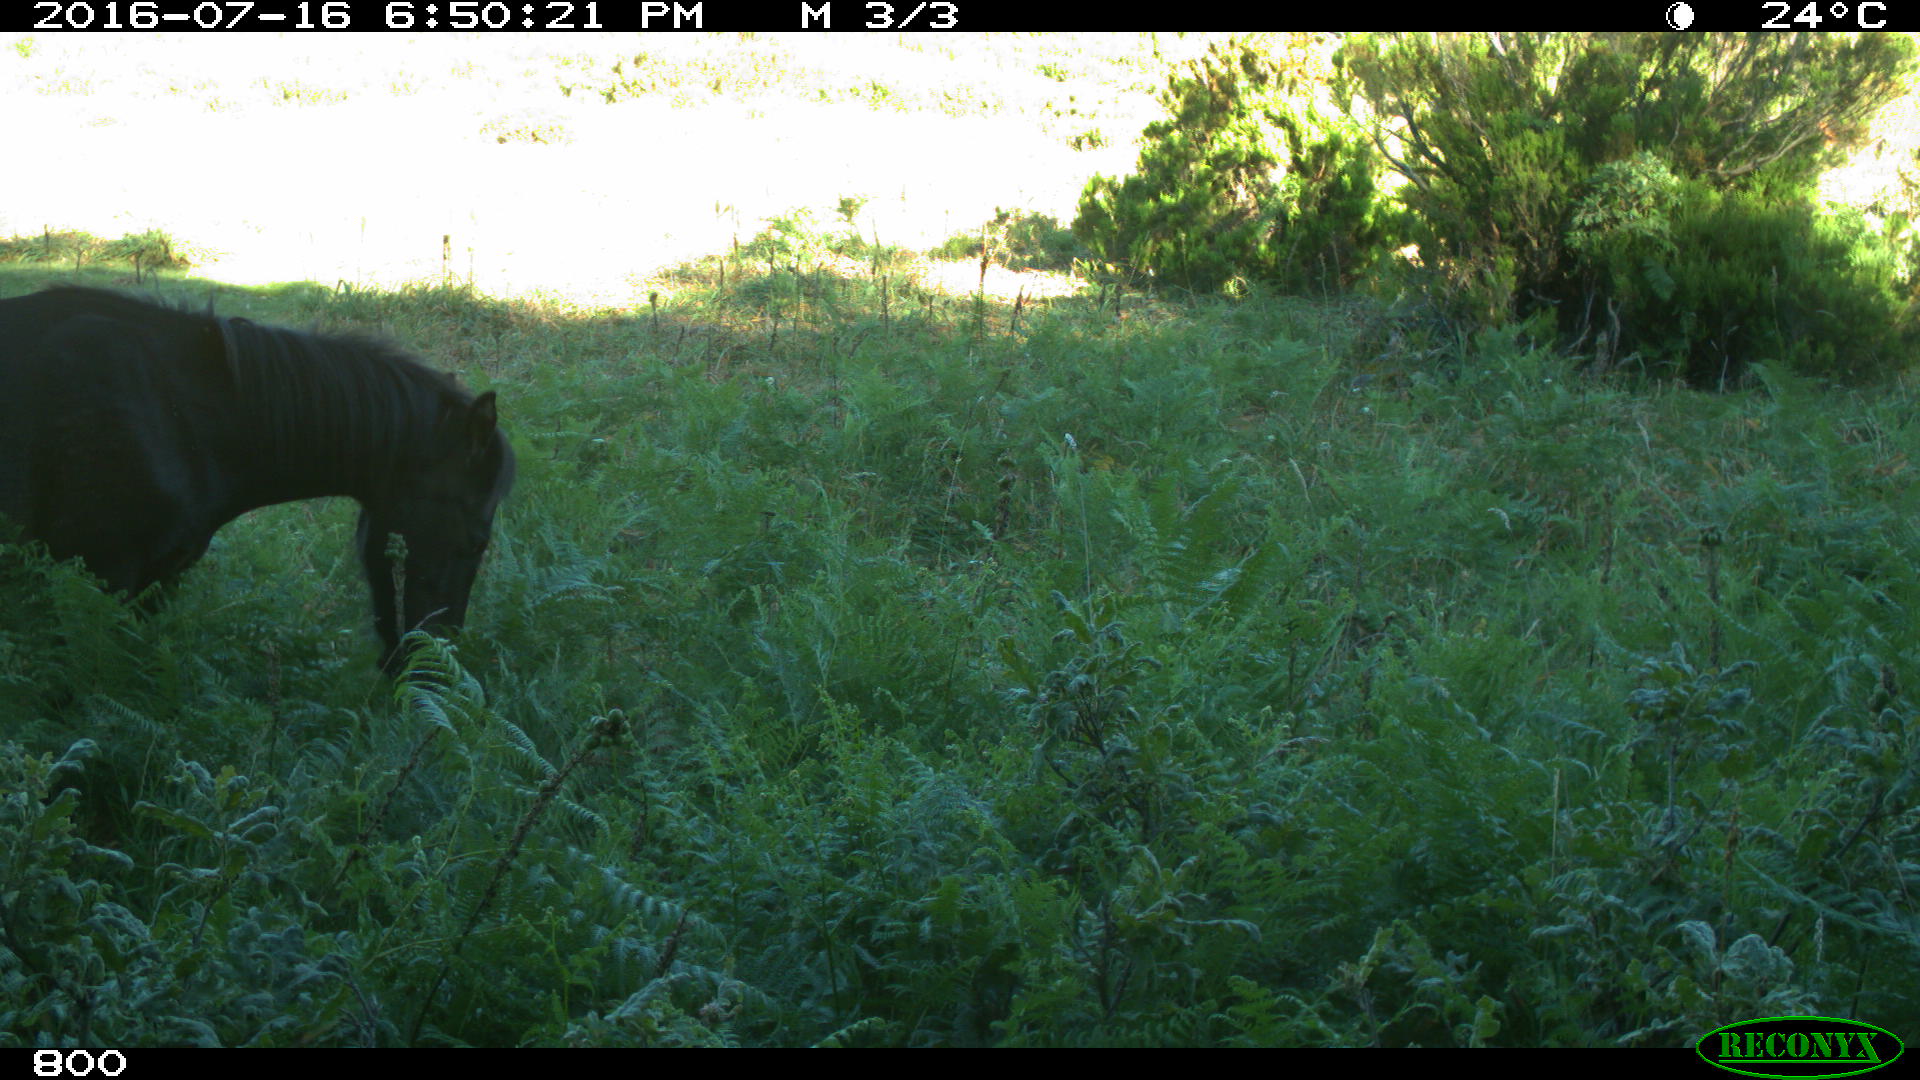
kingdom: Animalia
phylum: Chordata
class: Mammalia
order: Perissodactyla
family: Equidae
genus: Equus
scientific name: Equus caballus
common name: Horse
